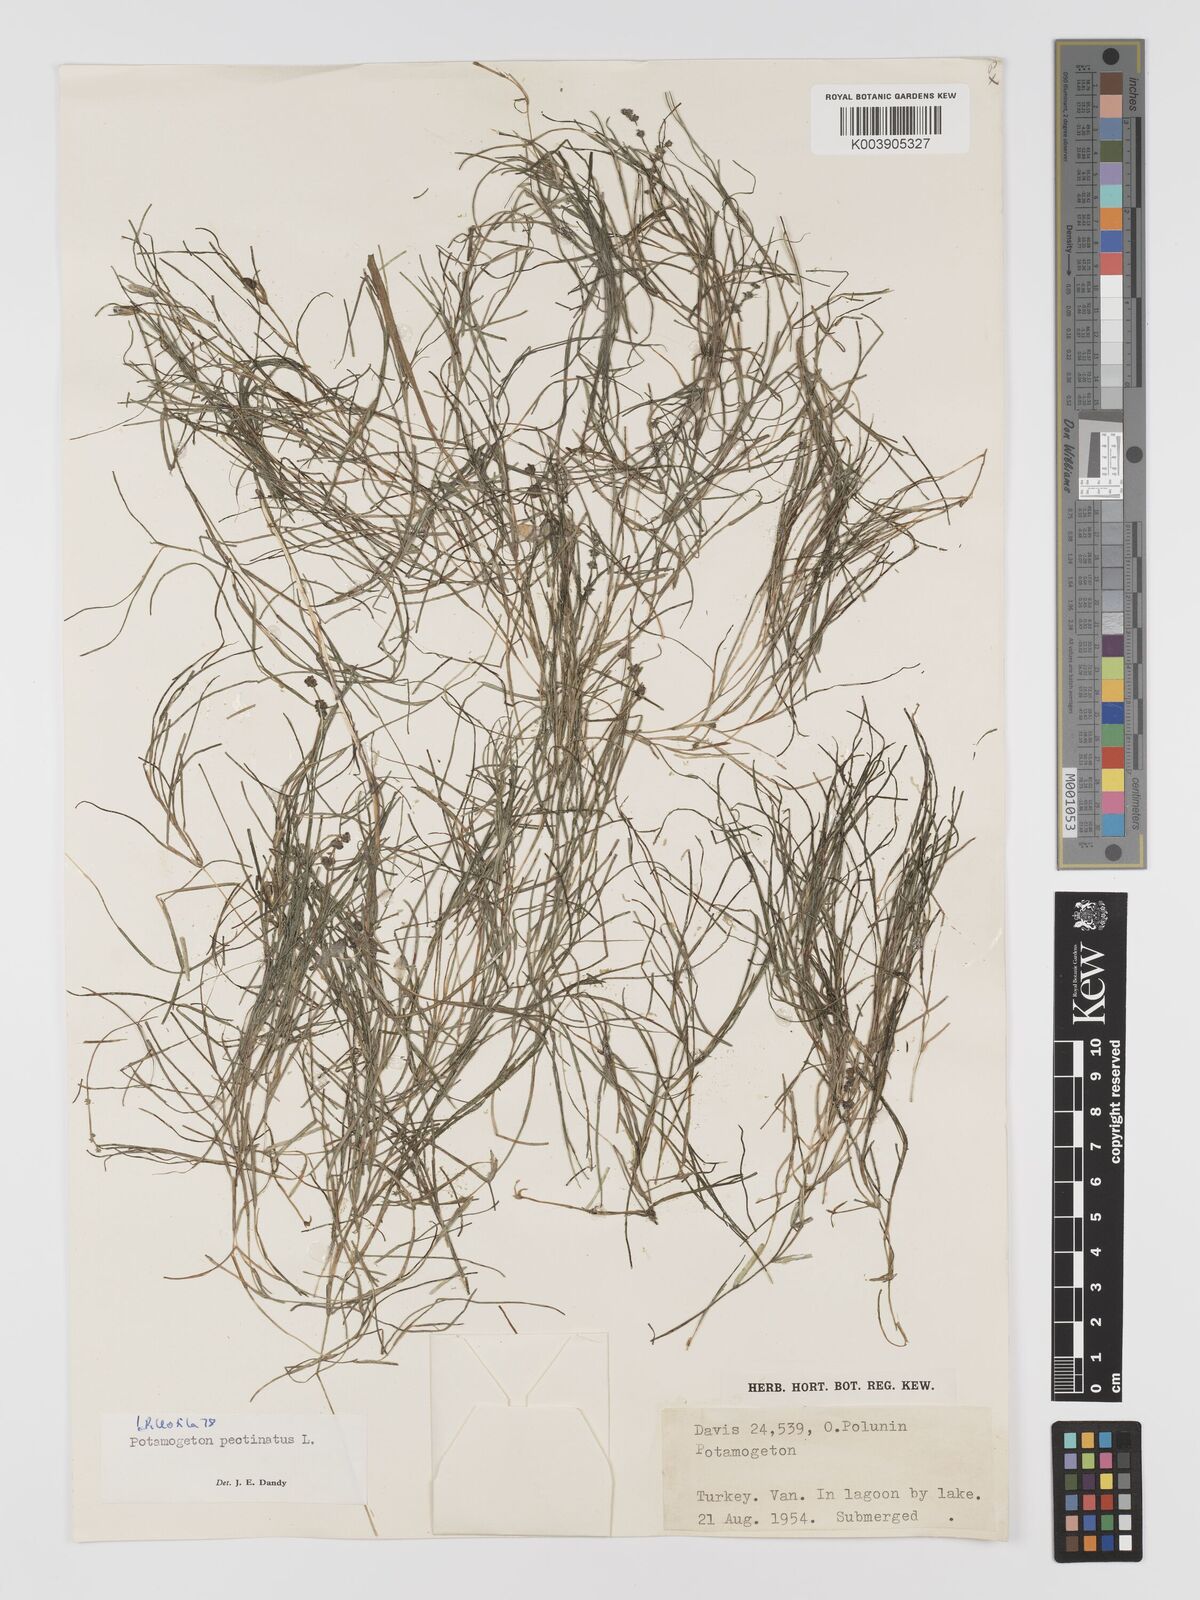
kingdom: Plantae
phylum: Tracheophyta
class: Liliopsida
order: Alismatales
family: Potamogetonaceae
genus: Stuckenia
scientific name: Stuckenia pectinata
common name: Sago pondweed
